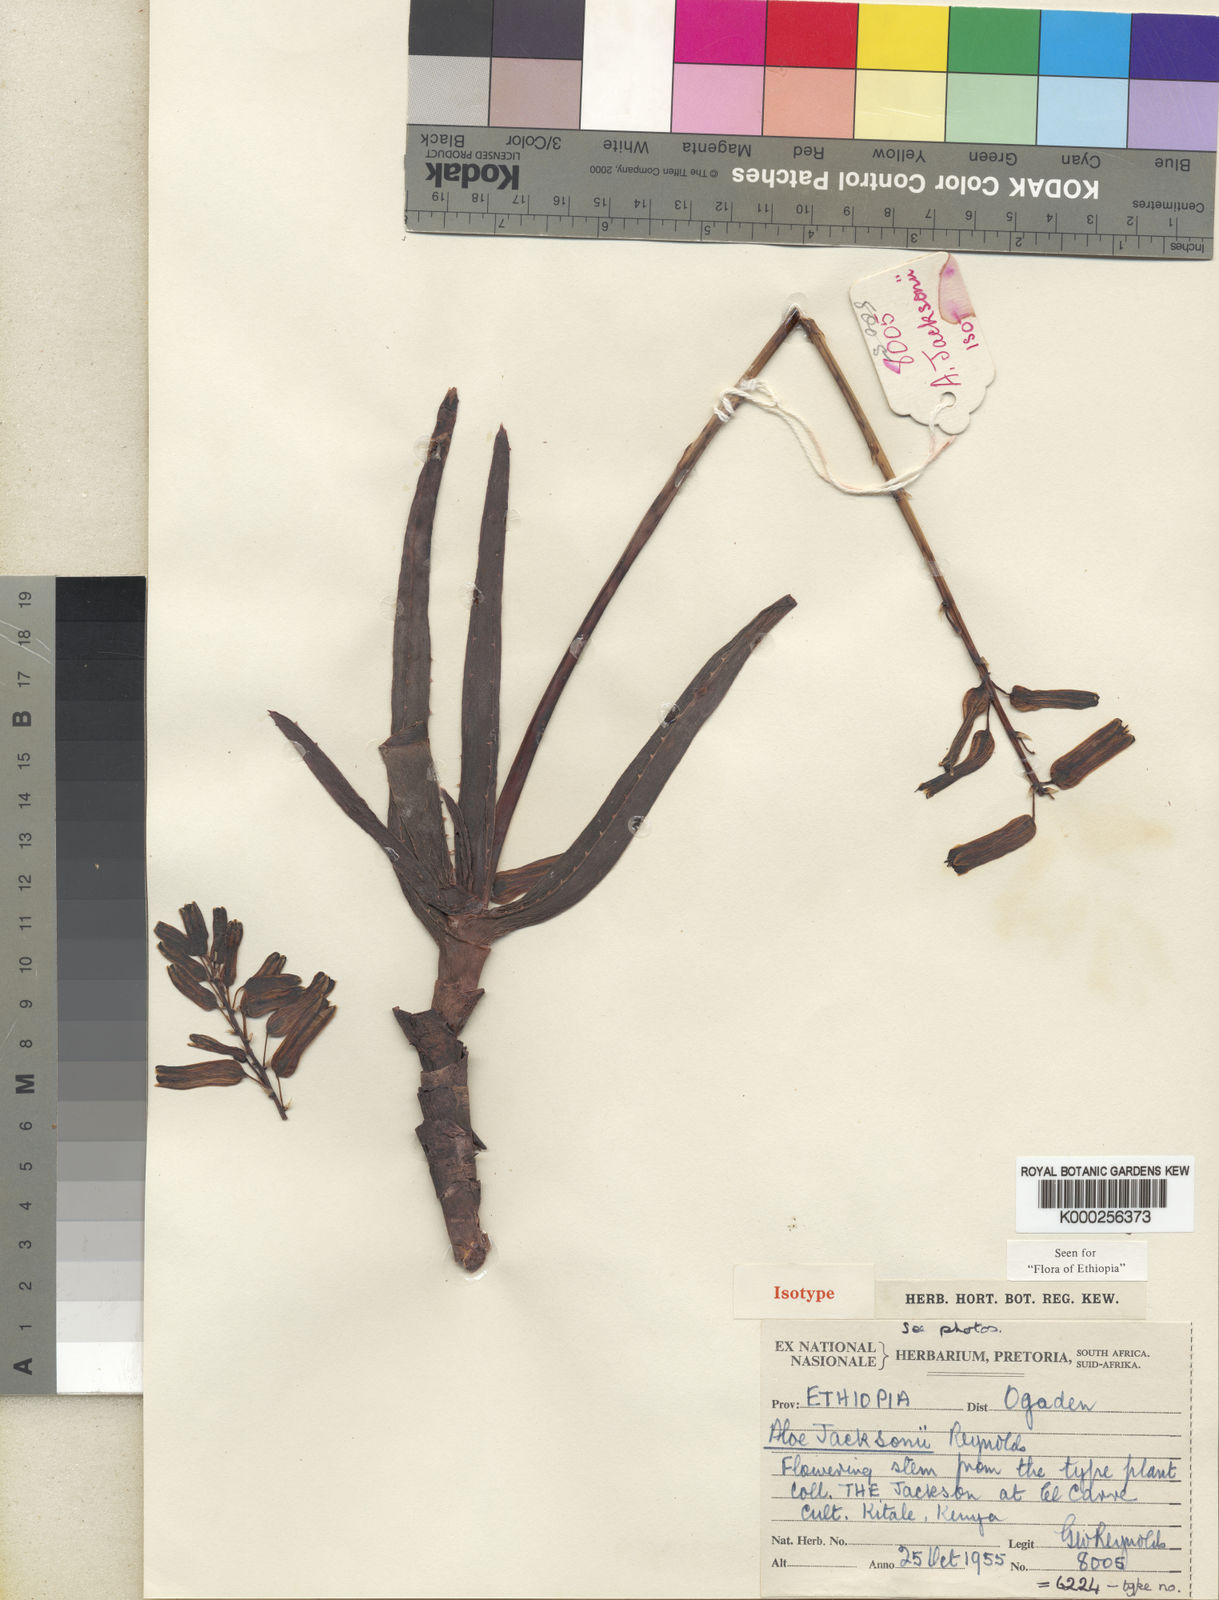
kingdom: Plantae
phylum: Tracheophyta
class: Liliopsida
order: Asparagales
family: Asphodelaceae
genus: Aloe
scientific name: Aloe jacksonii
